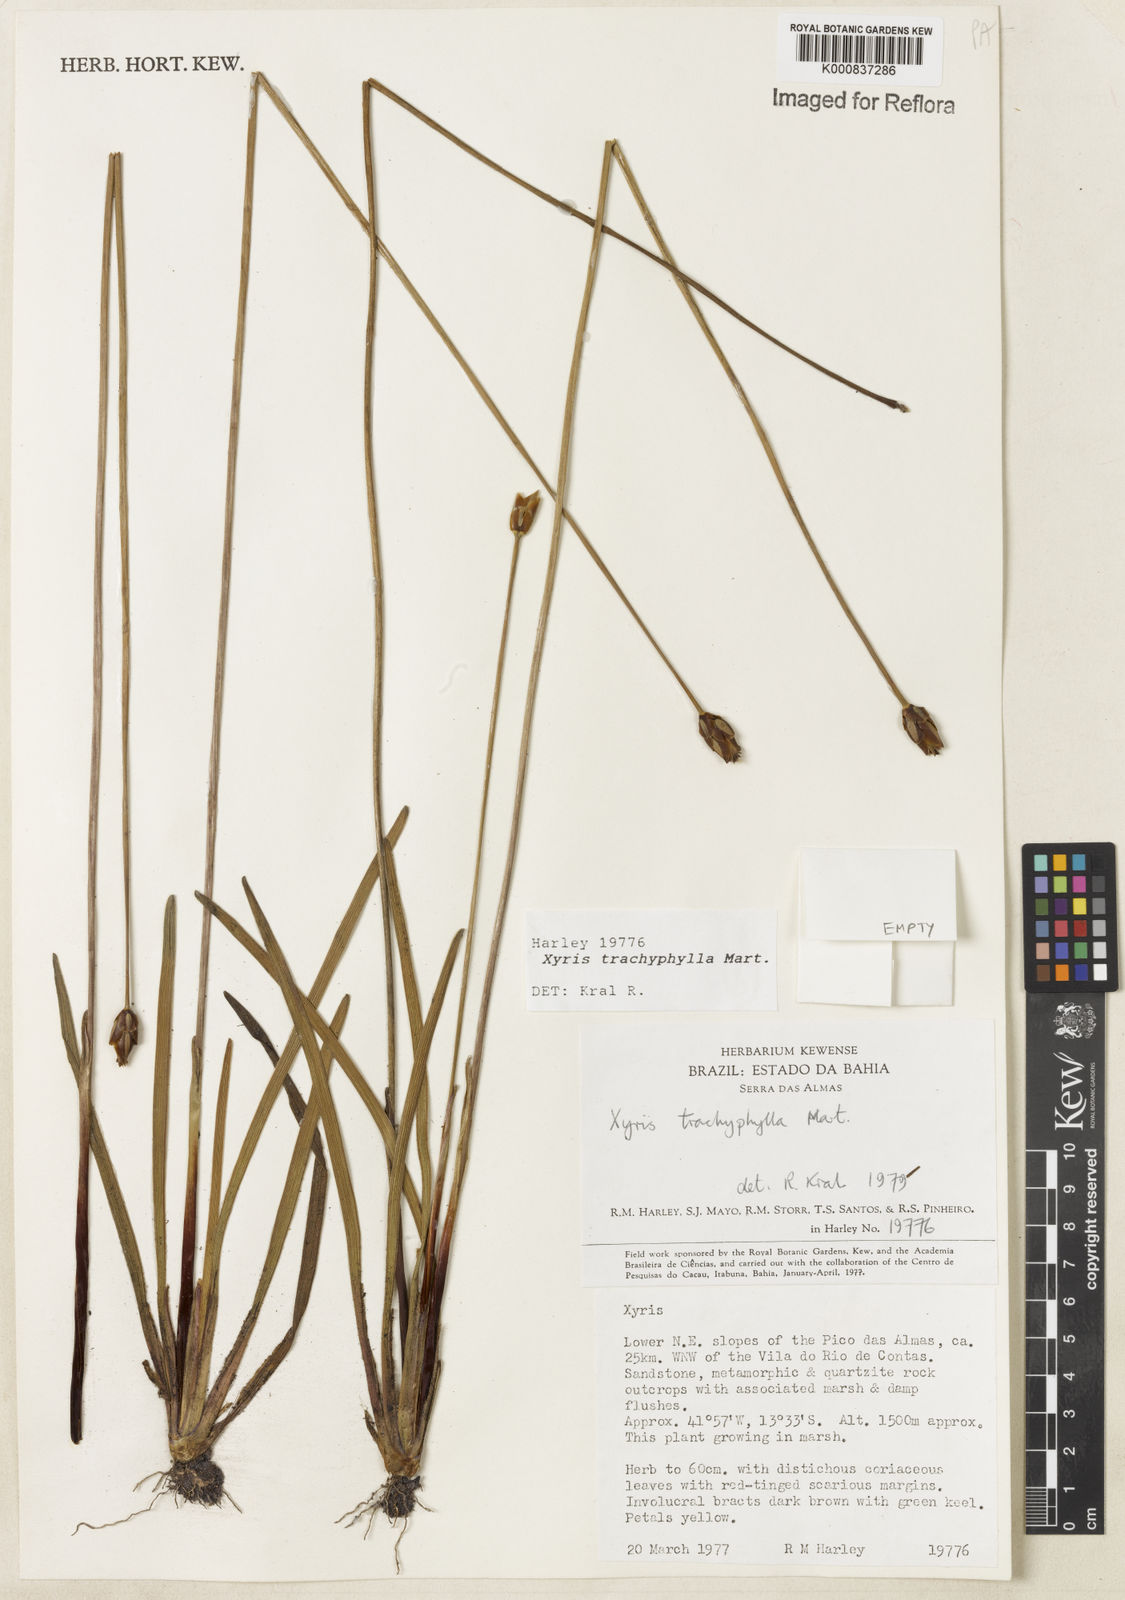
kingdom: Plantae
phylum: Tracheophyta
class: Liliopsida
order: Poales
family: Xyridaceae
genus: Xyris
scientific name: Xyris trachyphylla
